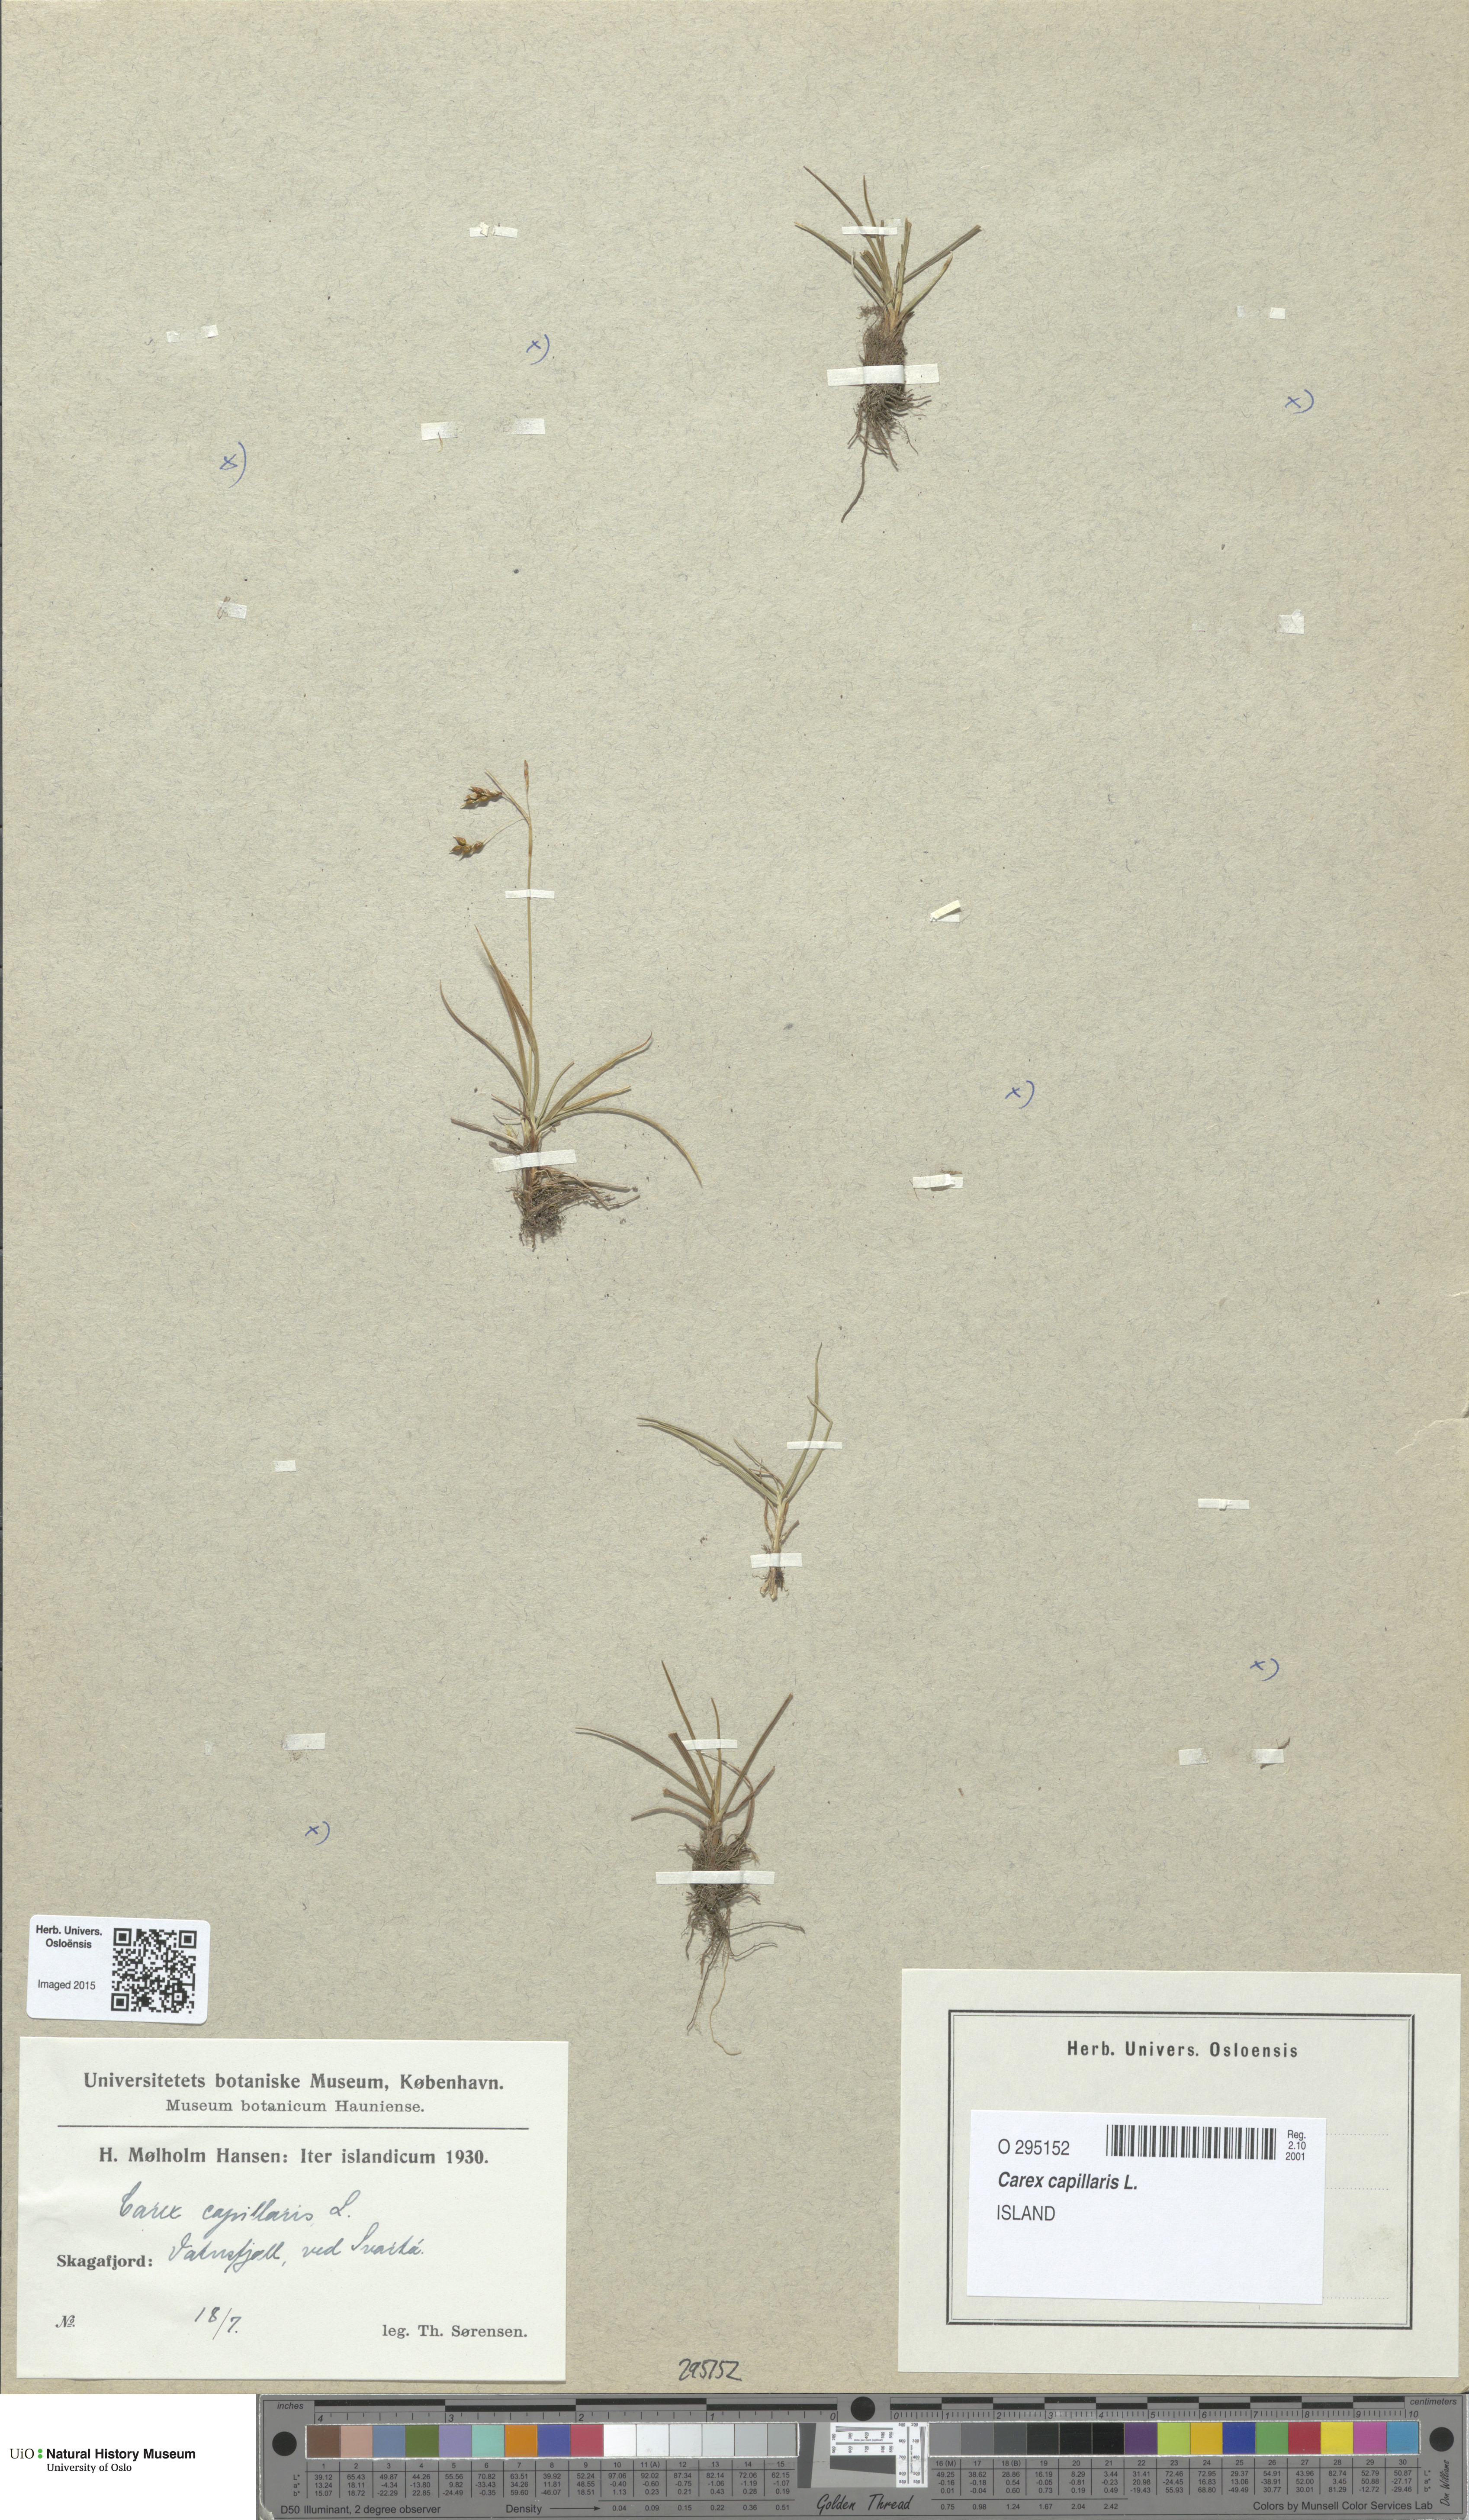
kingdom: Plantae
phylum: Tracheophyta
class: Liliopsida
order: Poales
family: Cyperaceae
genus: Carex
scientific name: Carex capillaris
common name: Hair sedge
